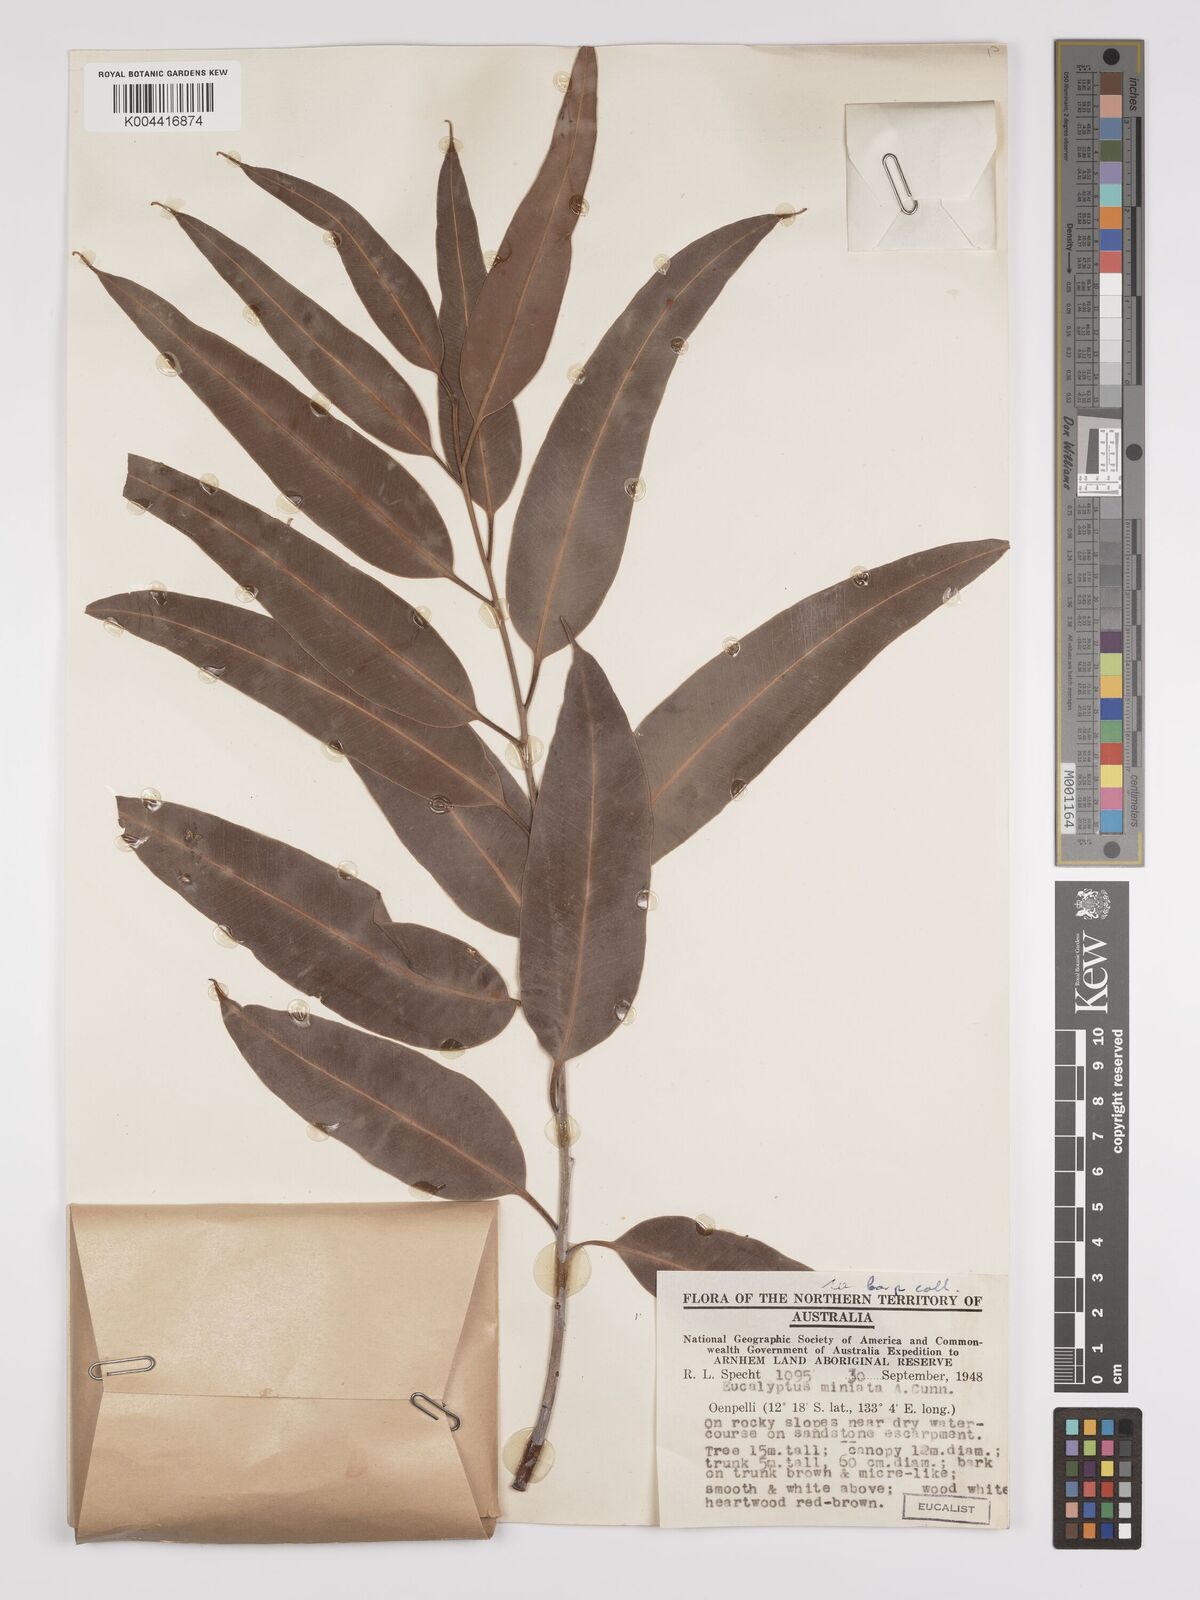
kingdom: Plantae
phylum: Tracheophyta
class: Magnoliopsida
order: Myrtales
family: Myrtaceae
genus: Eucalyptus
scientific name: Eucalyptus miniata
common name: Darwin-woollybutt
